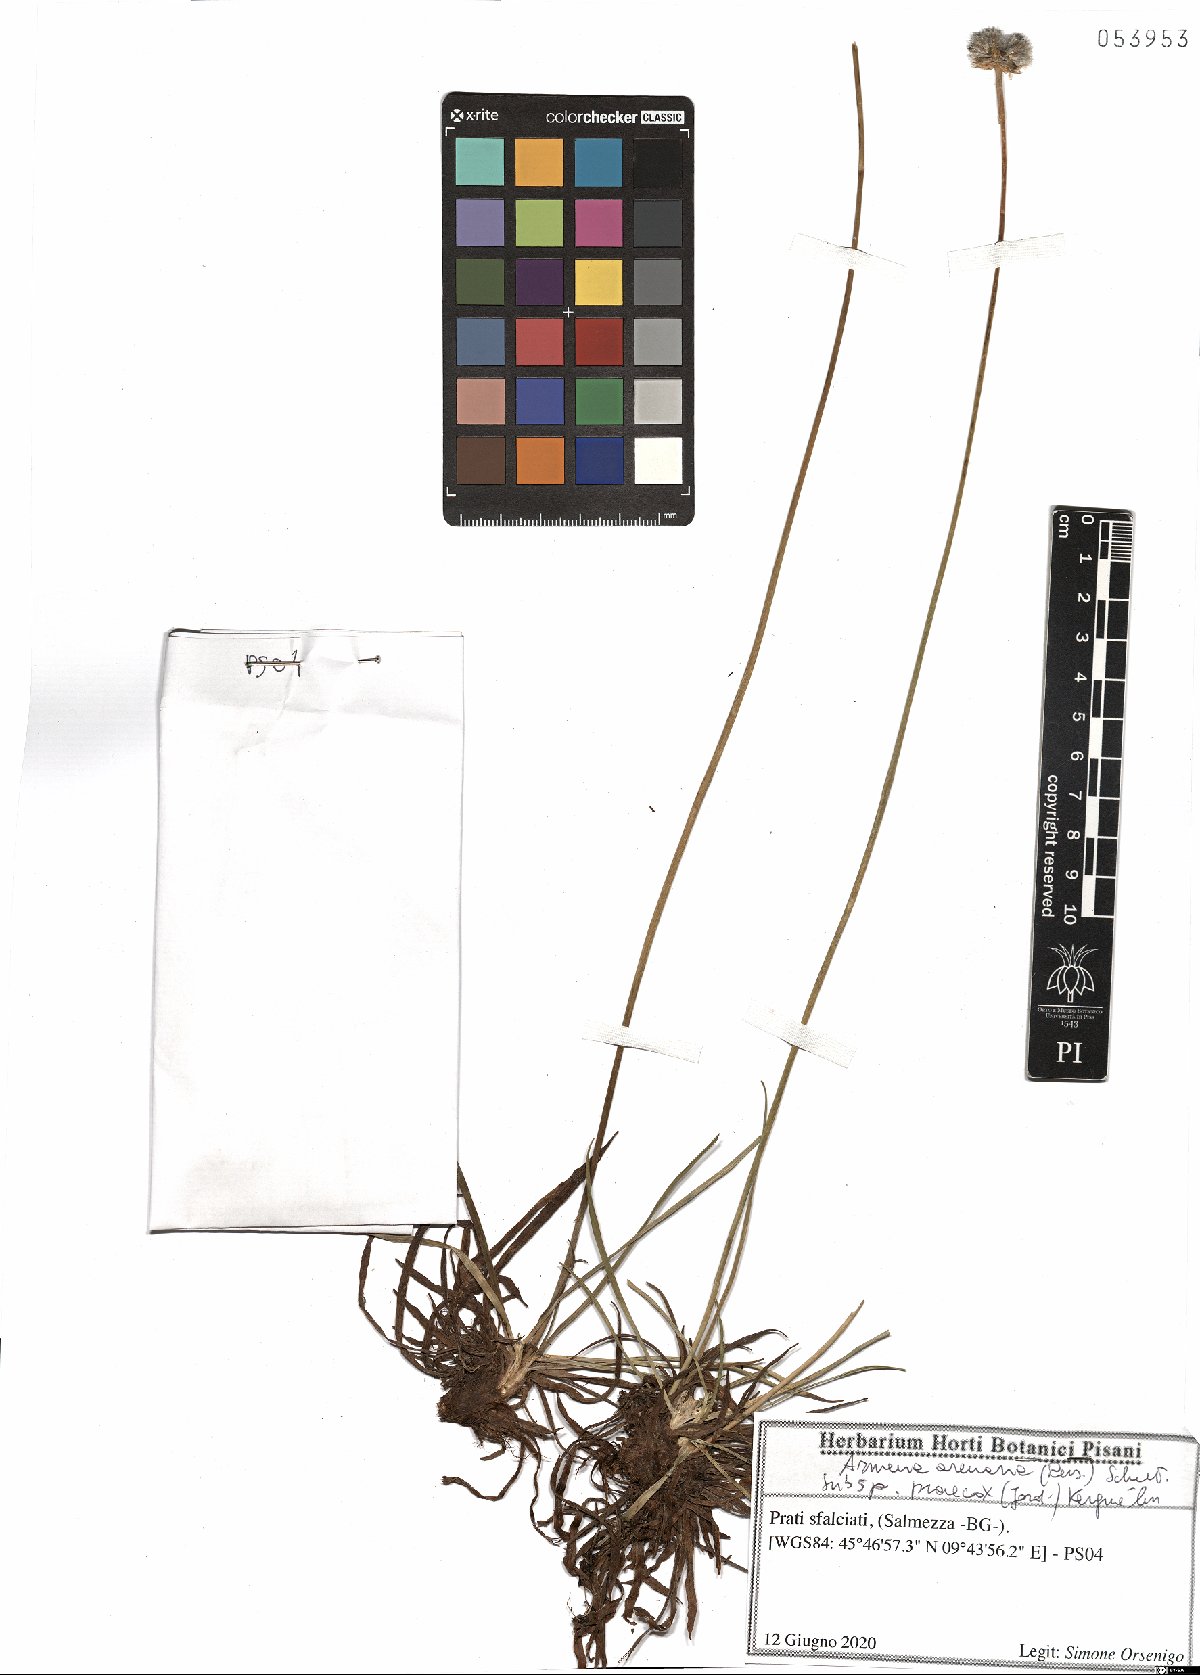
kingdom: Plantae
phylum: Tracheophyta
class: Magnoliopsida
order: Caryophyllales
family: Plumbaginaceae
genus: Armeria
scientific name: Armeria arenaria
